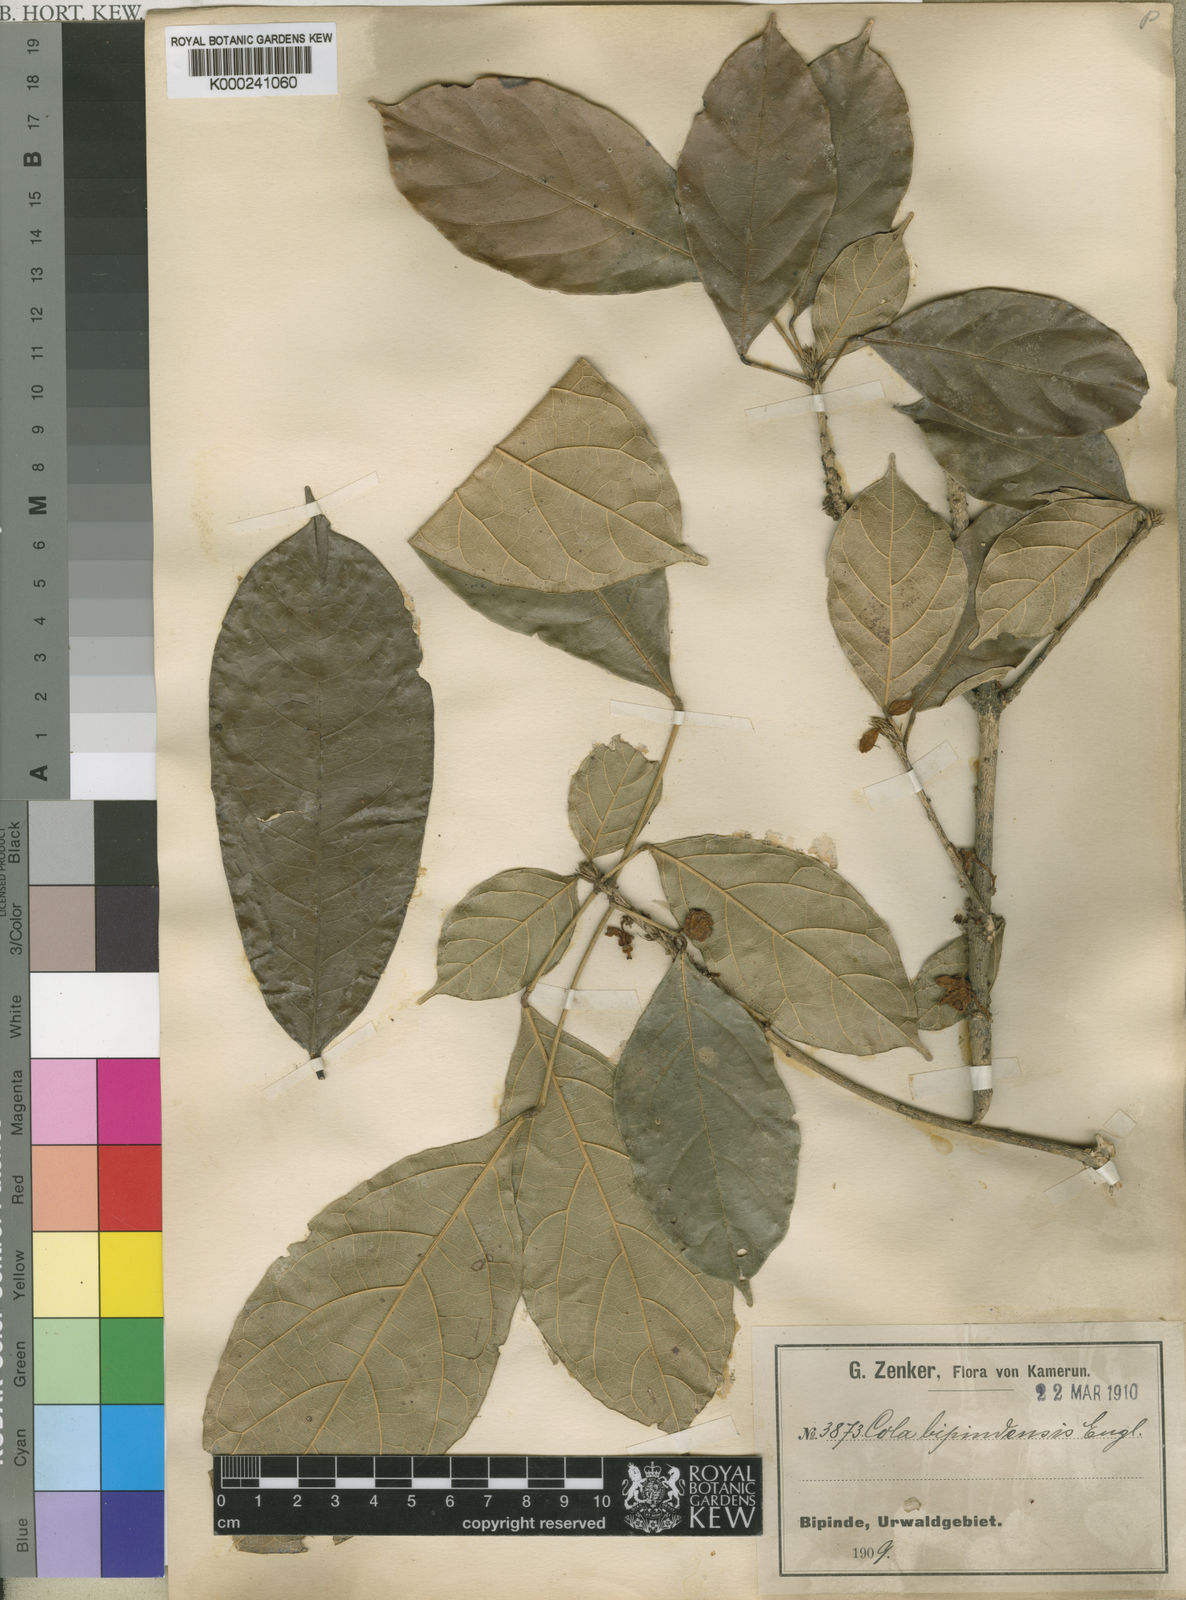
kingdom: Plantae
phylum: Tracheophyta
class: Magnoliopsida
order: Malvales
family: Malvaceae
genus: Cola
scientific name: Cola flavovelutina
